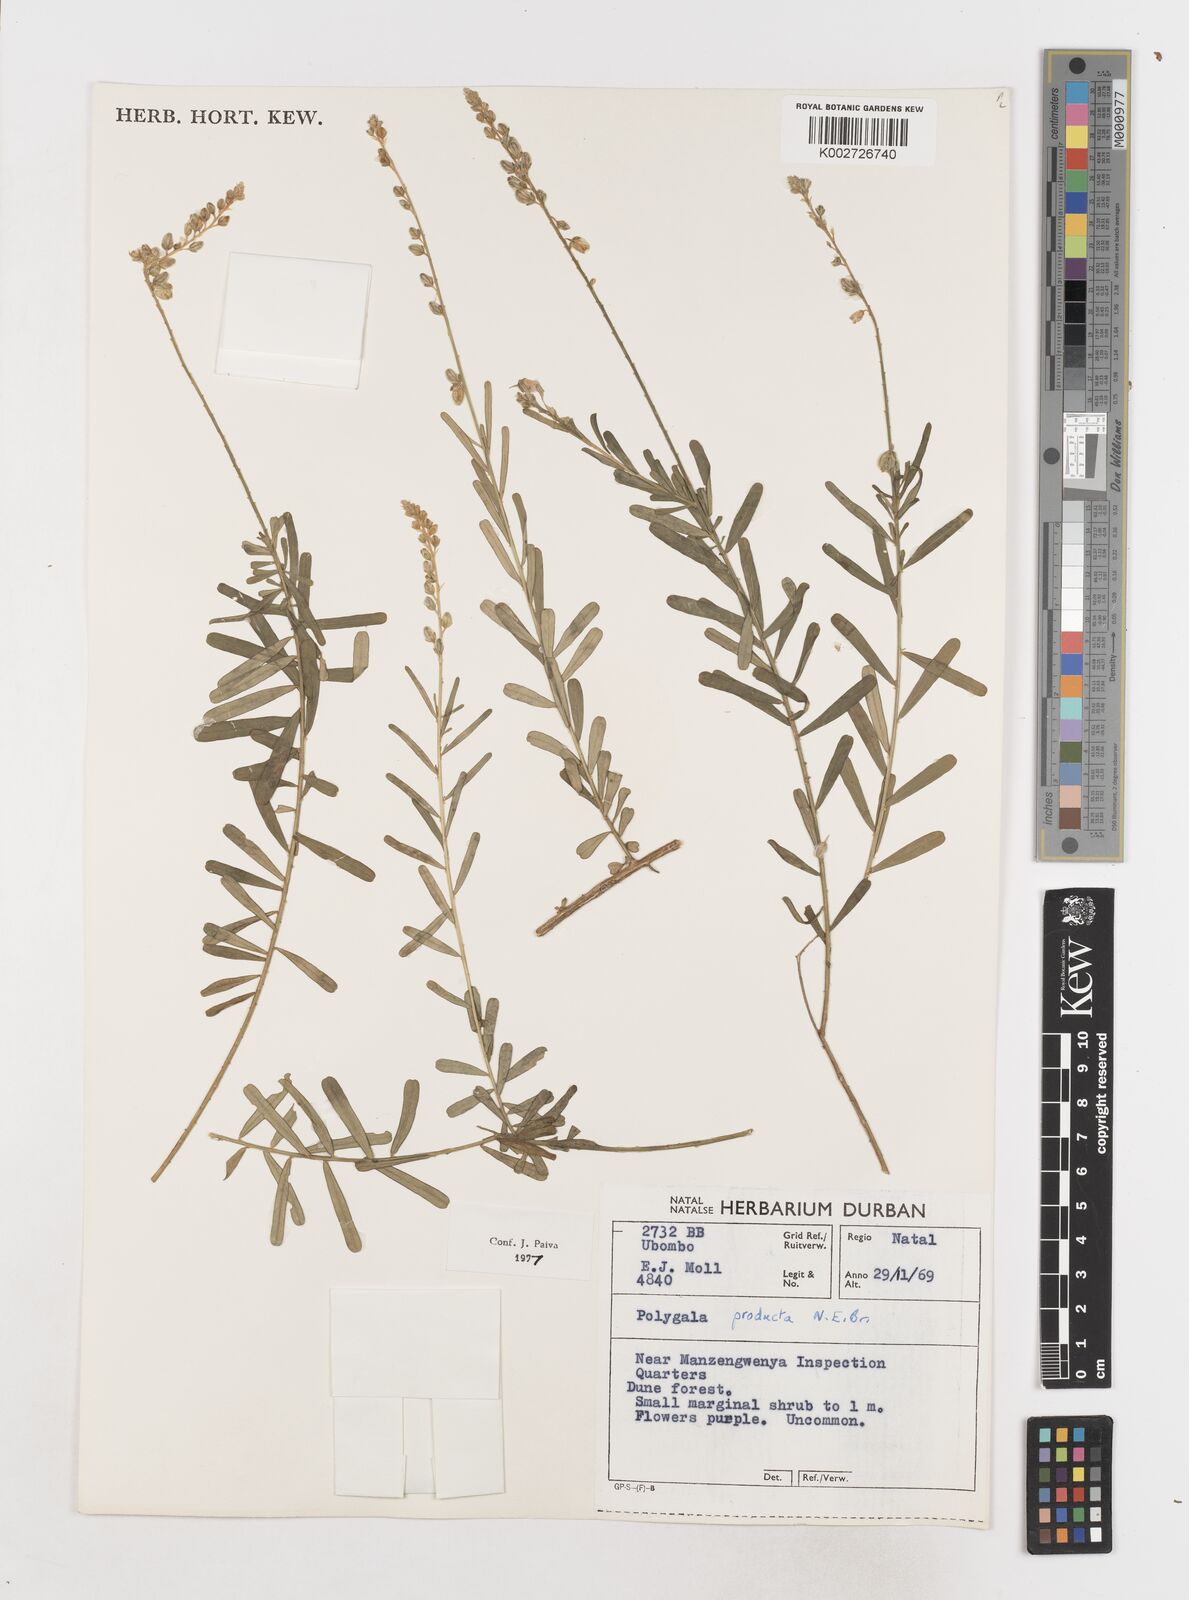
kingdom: Plantae
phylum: Tracheophyta
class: Magnoliopsida
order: Fabales
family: Polygalaceae
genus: Polygala
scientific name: Polygala producta
